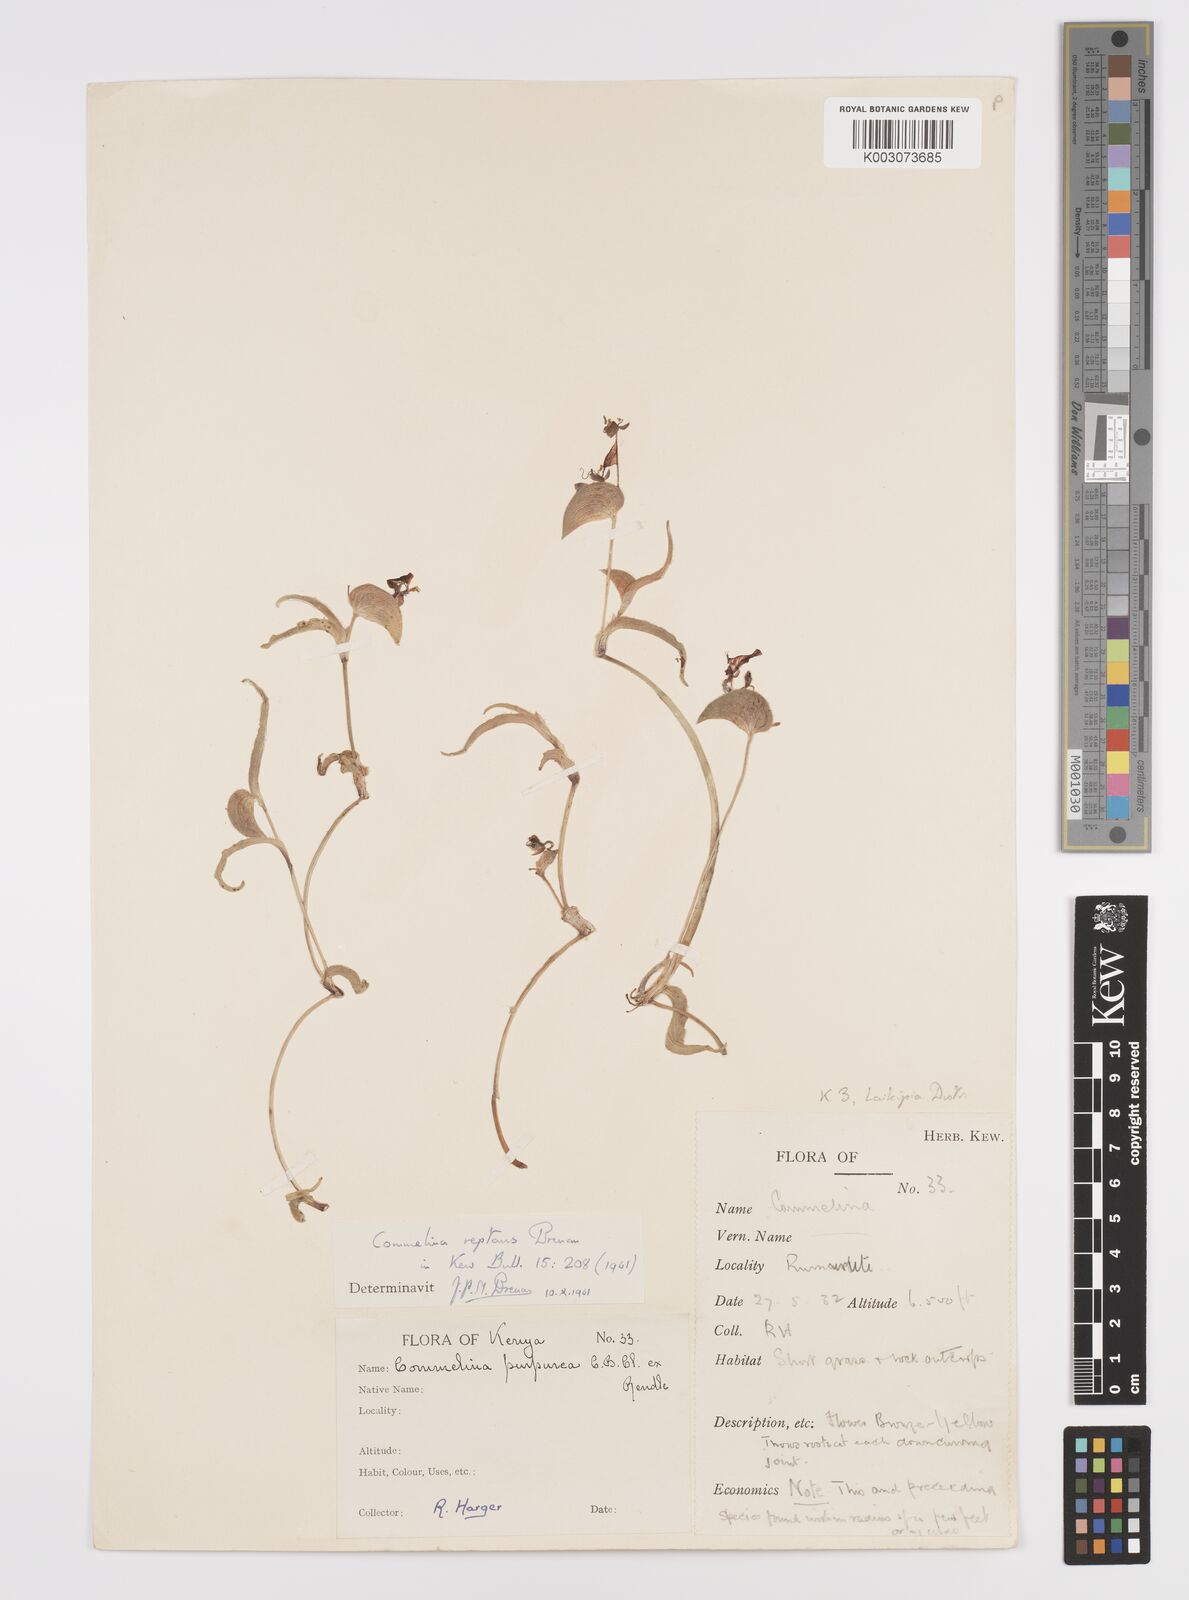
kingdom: Plantae
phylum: Tracheophyta
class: Liliopsida
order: Commelinales
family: Commelinaceae
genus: Commelina
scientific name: Commelina reptans
